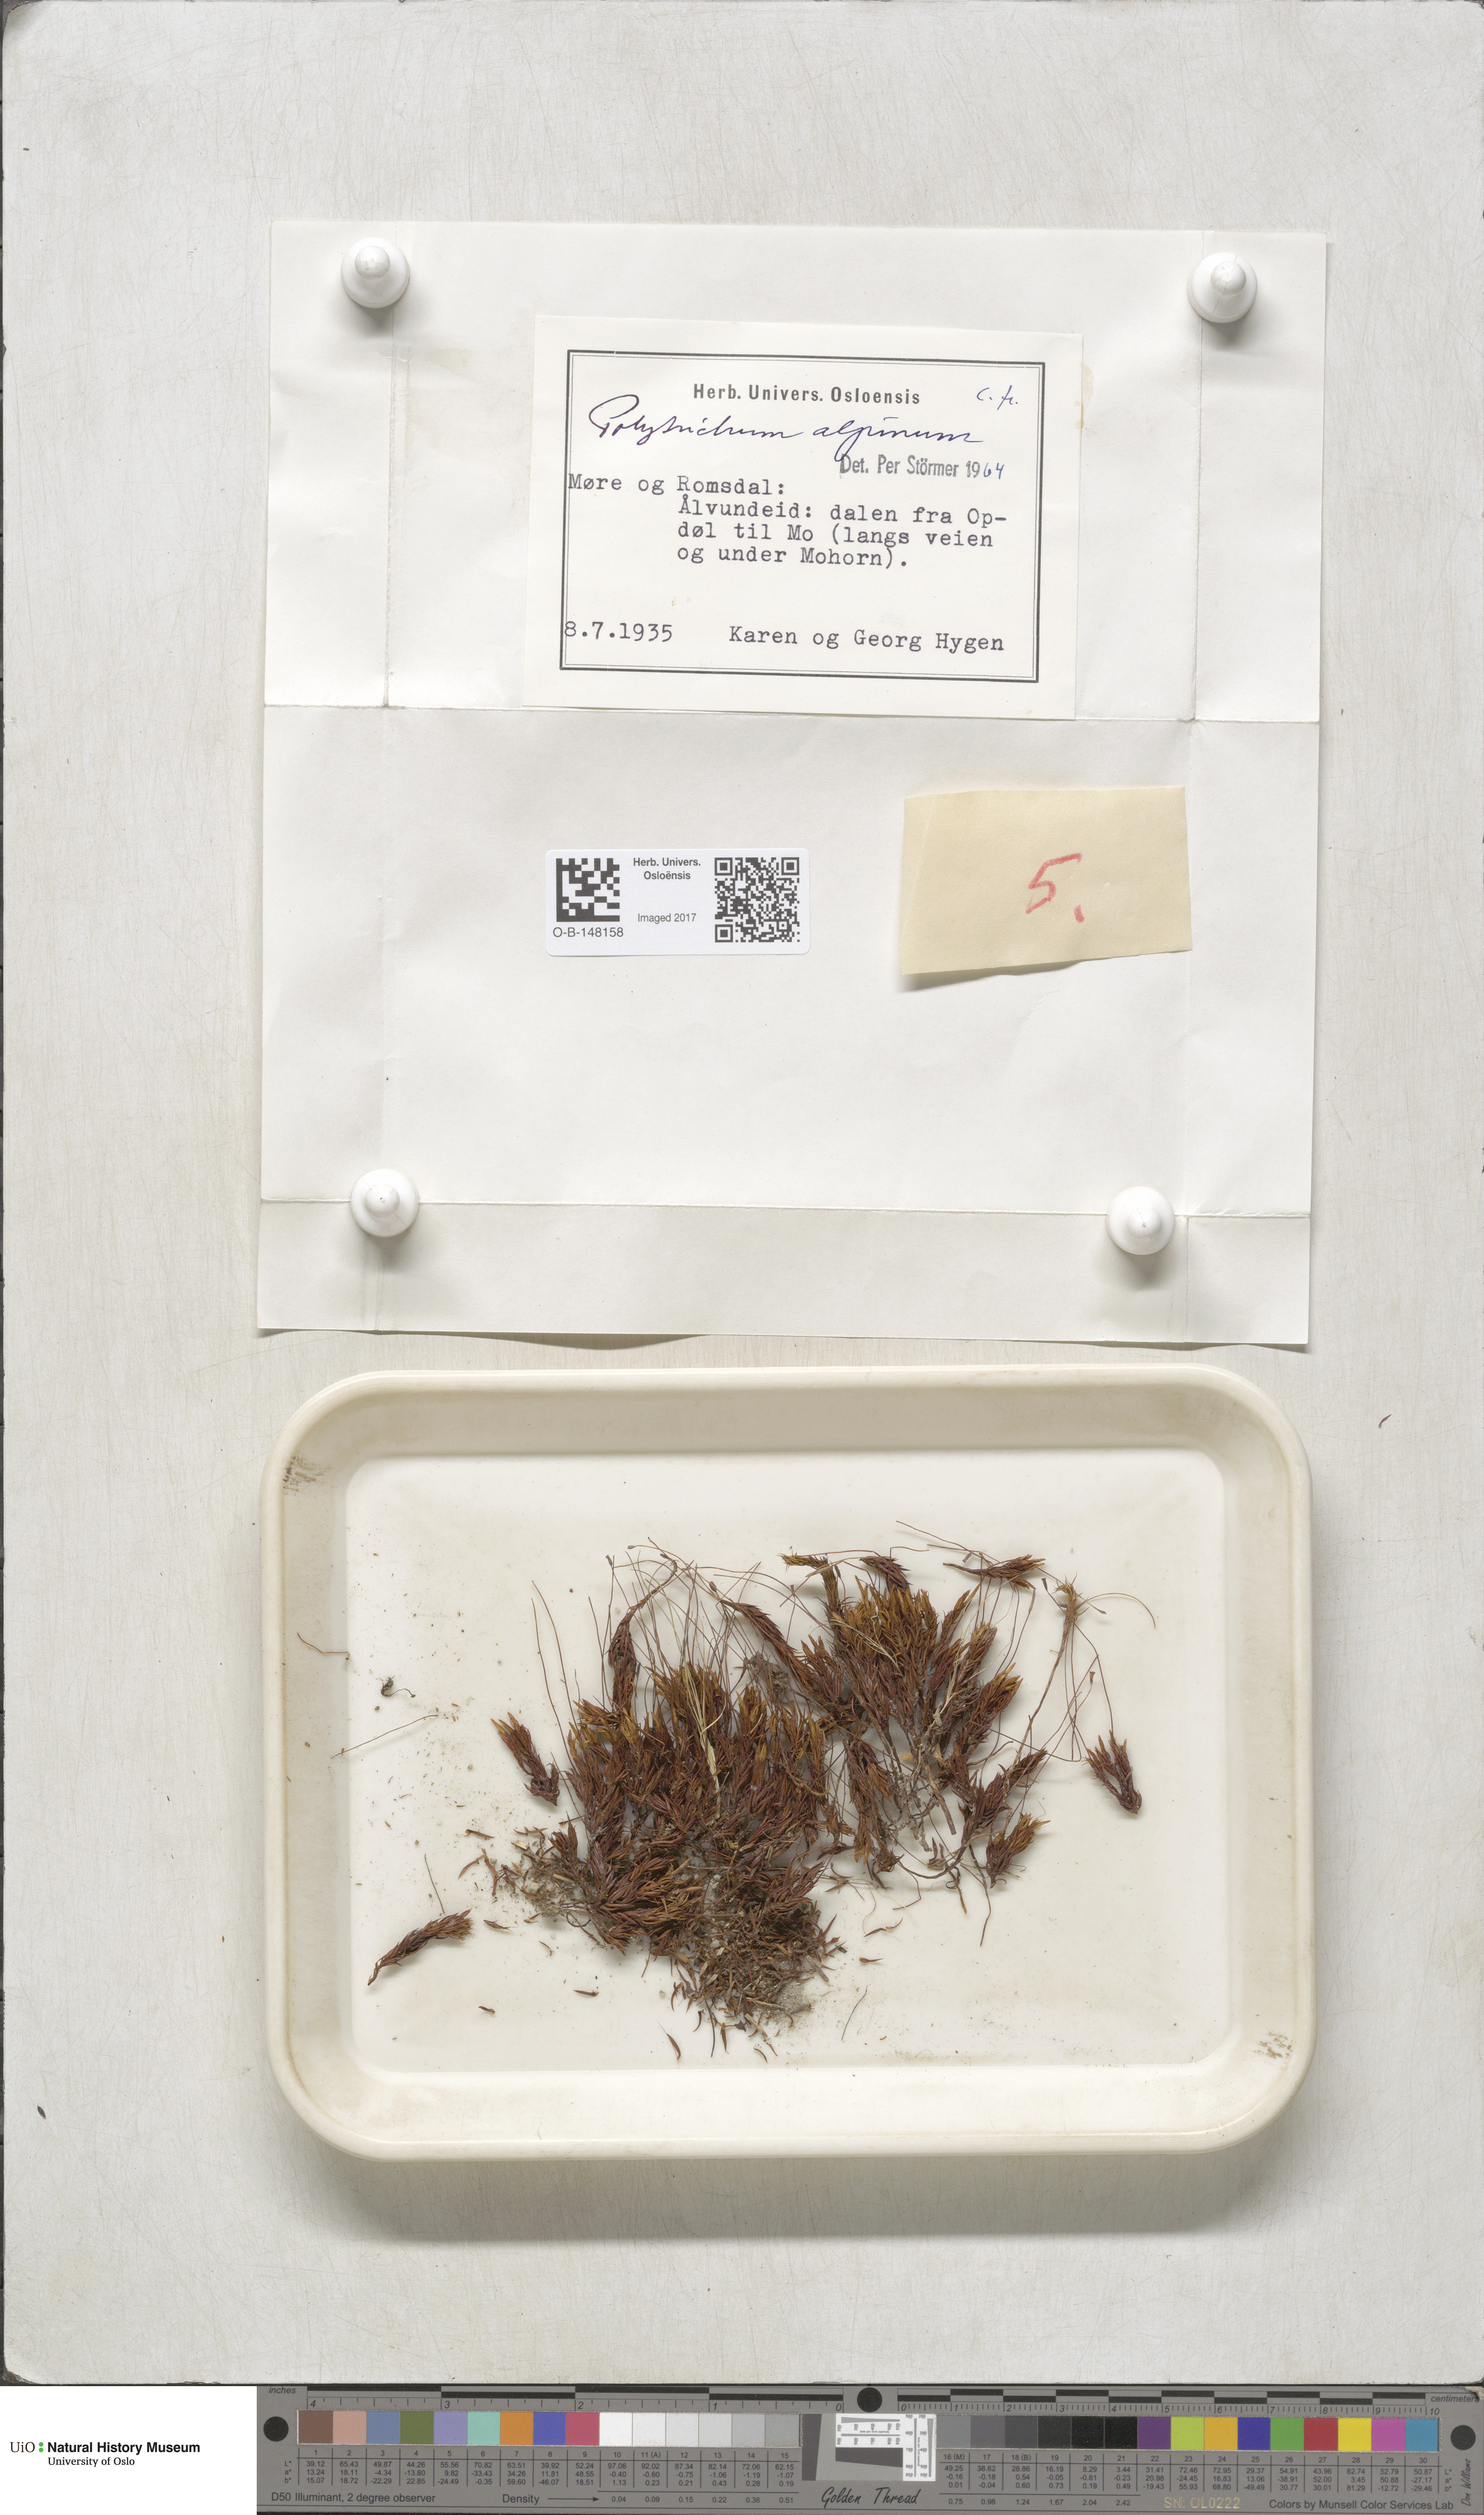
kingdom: Plantae
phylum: Bryophyta
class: Polytrichopsida
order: Polytrichales
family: Polytrichaceae
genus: Polytrichastrum
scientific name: Polytrichastrum alpinum
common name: Alpine haircap
